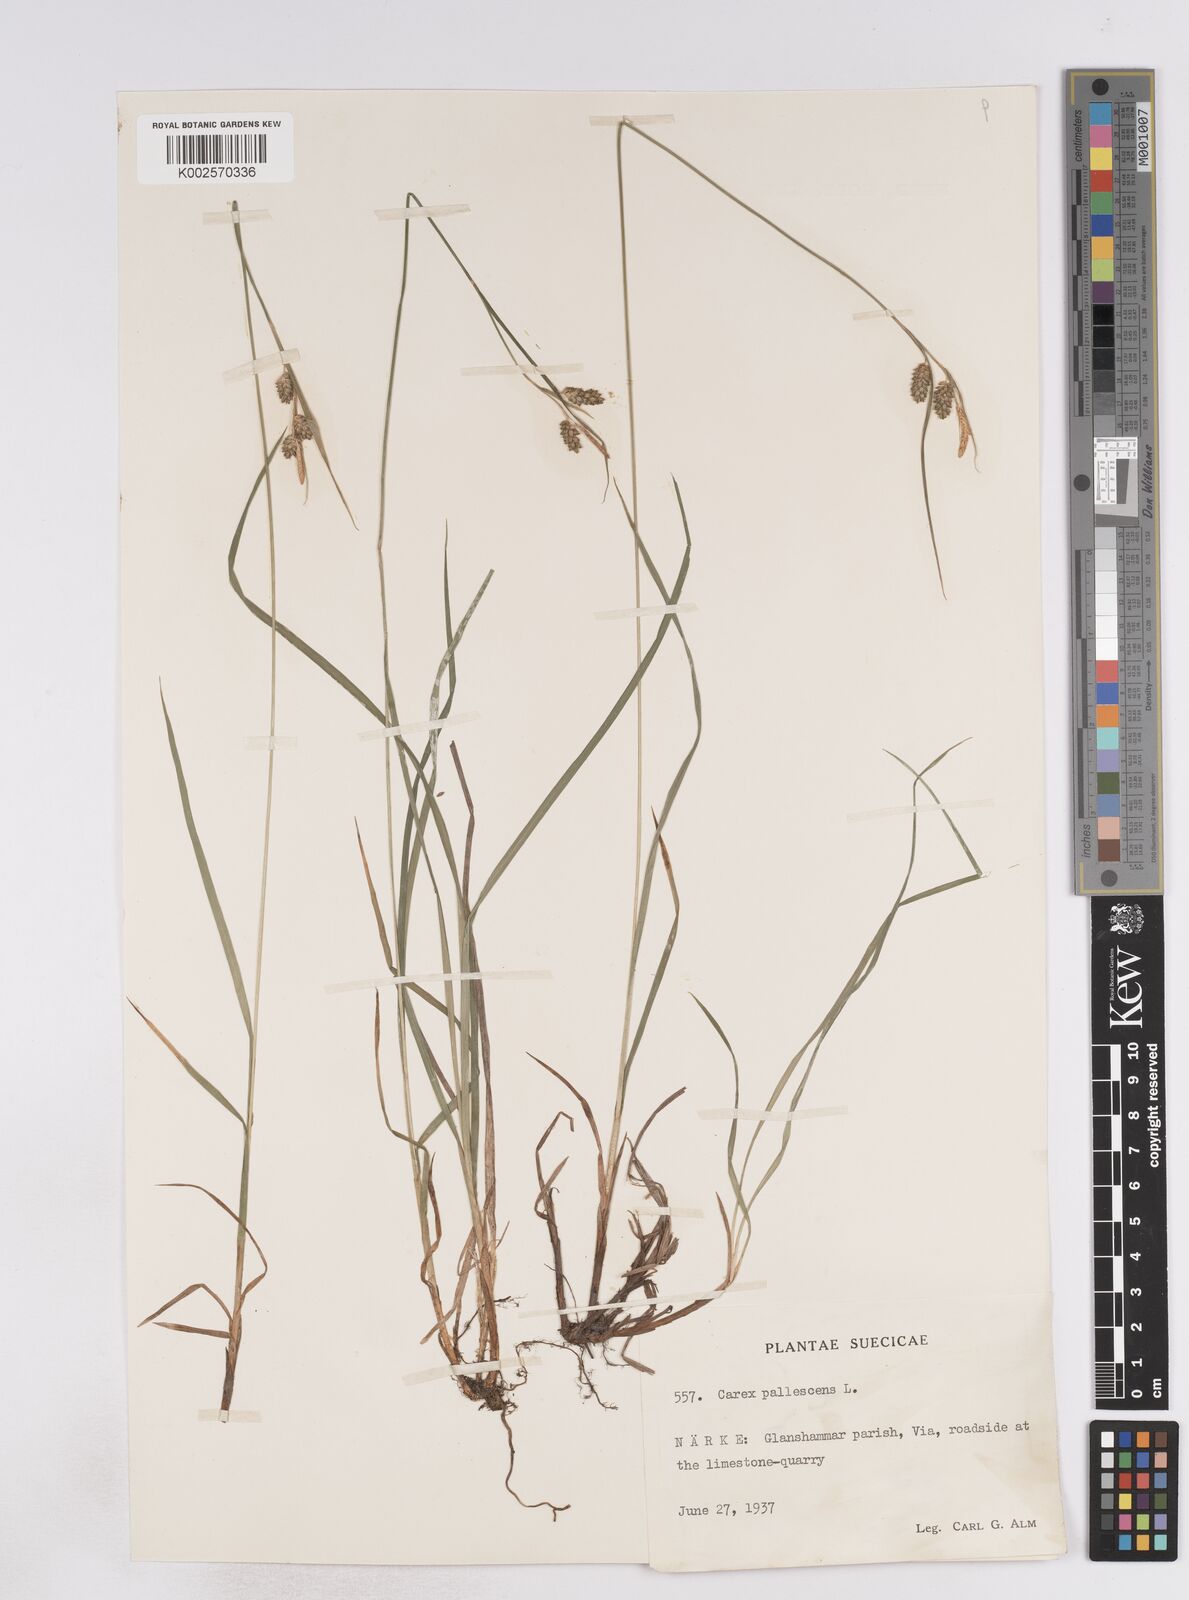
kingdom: Plantae
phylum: Tracheophyta
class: Liliopsida
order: Poales
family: Cyperaceae
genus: Carex
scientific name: Carex pallescens
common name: Pale sedge
